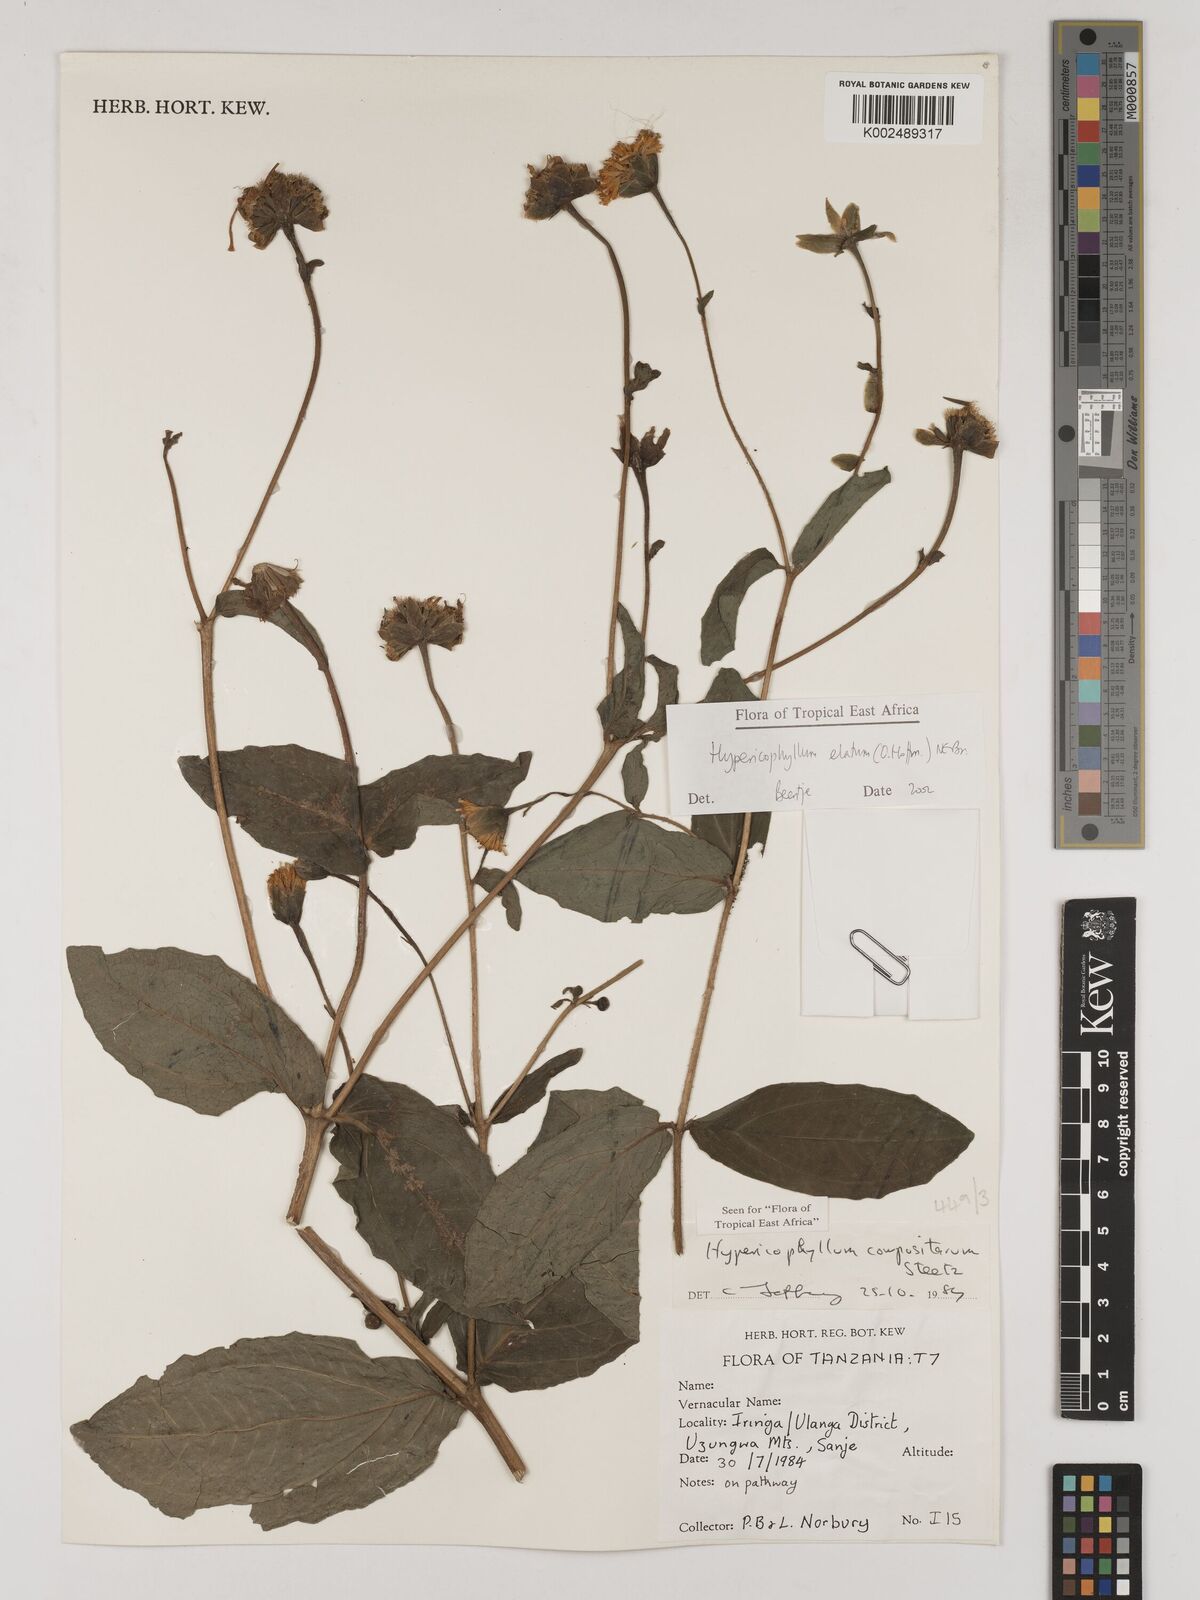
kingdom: Plantae
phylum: Tracheophyta
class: Magnoliopsida
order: Asterales
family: Asteraceae
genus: Hypericophyllum
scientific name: Hypericophyllum elatum
